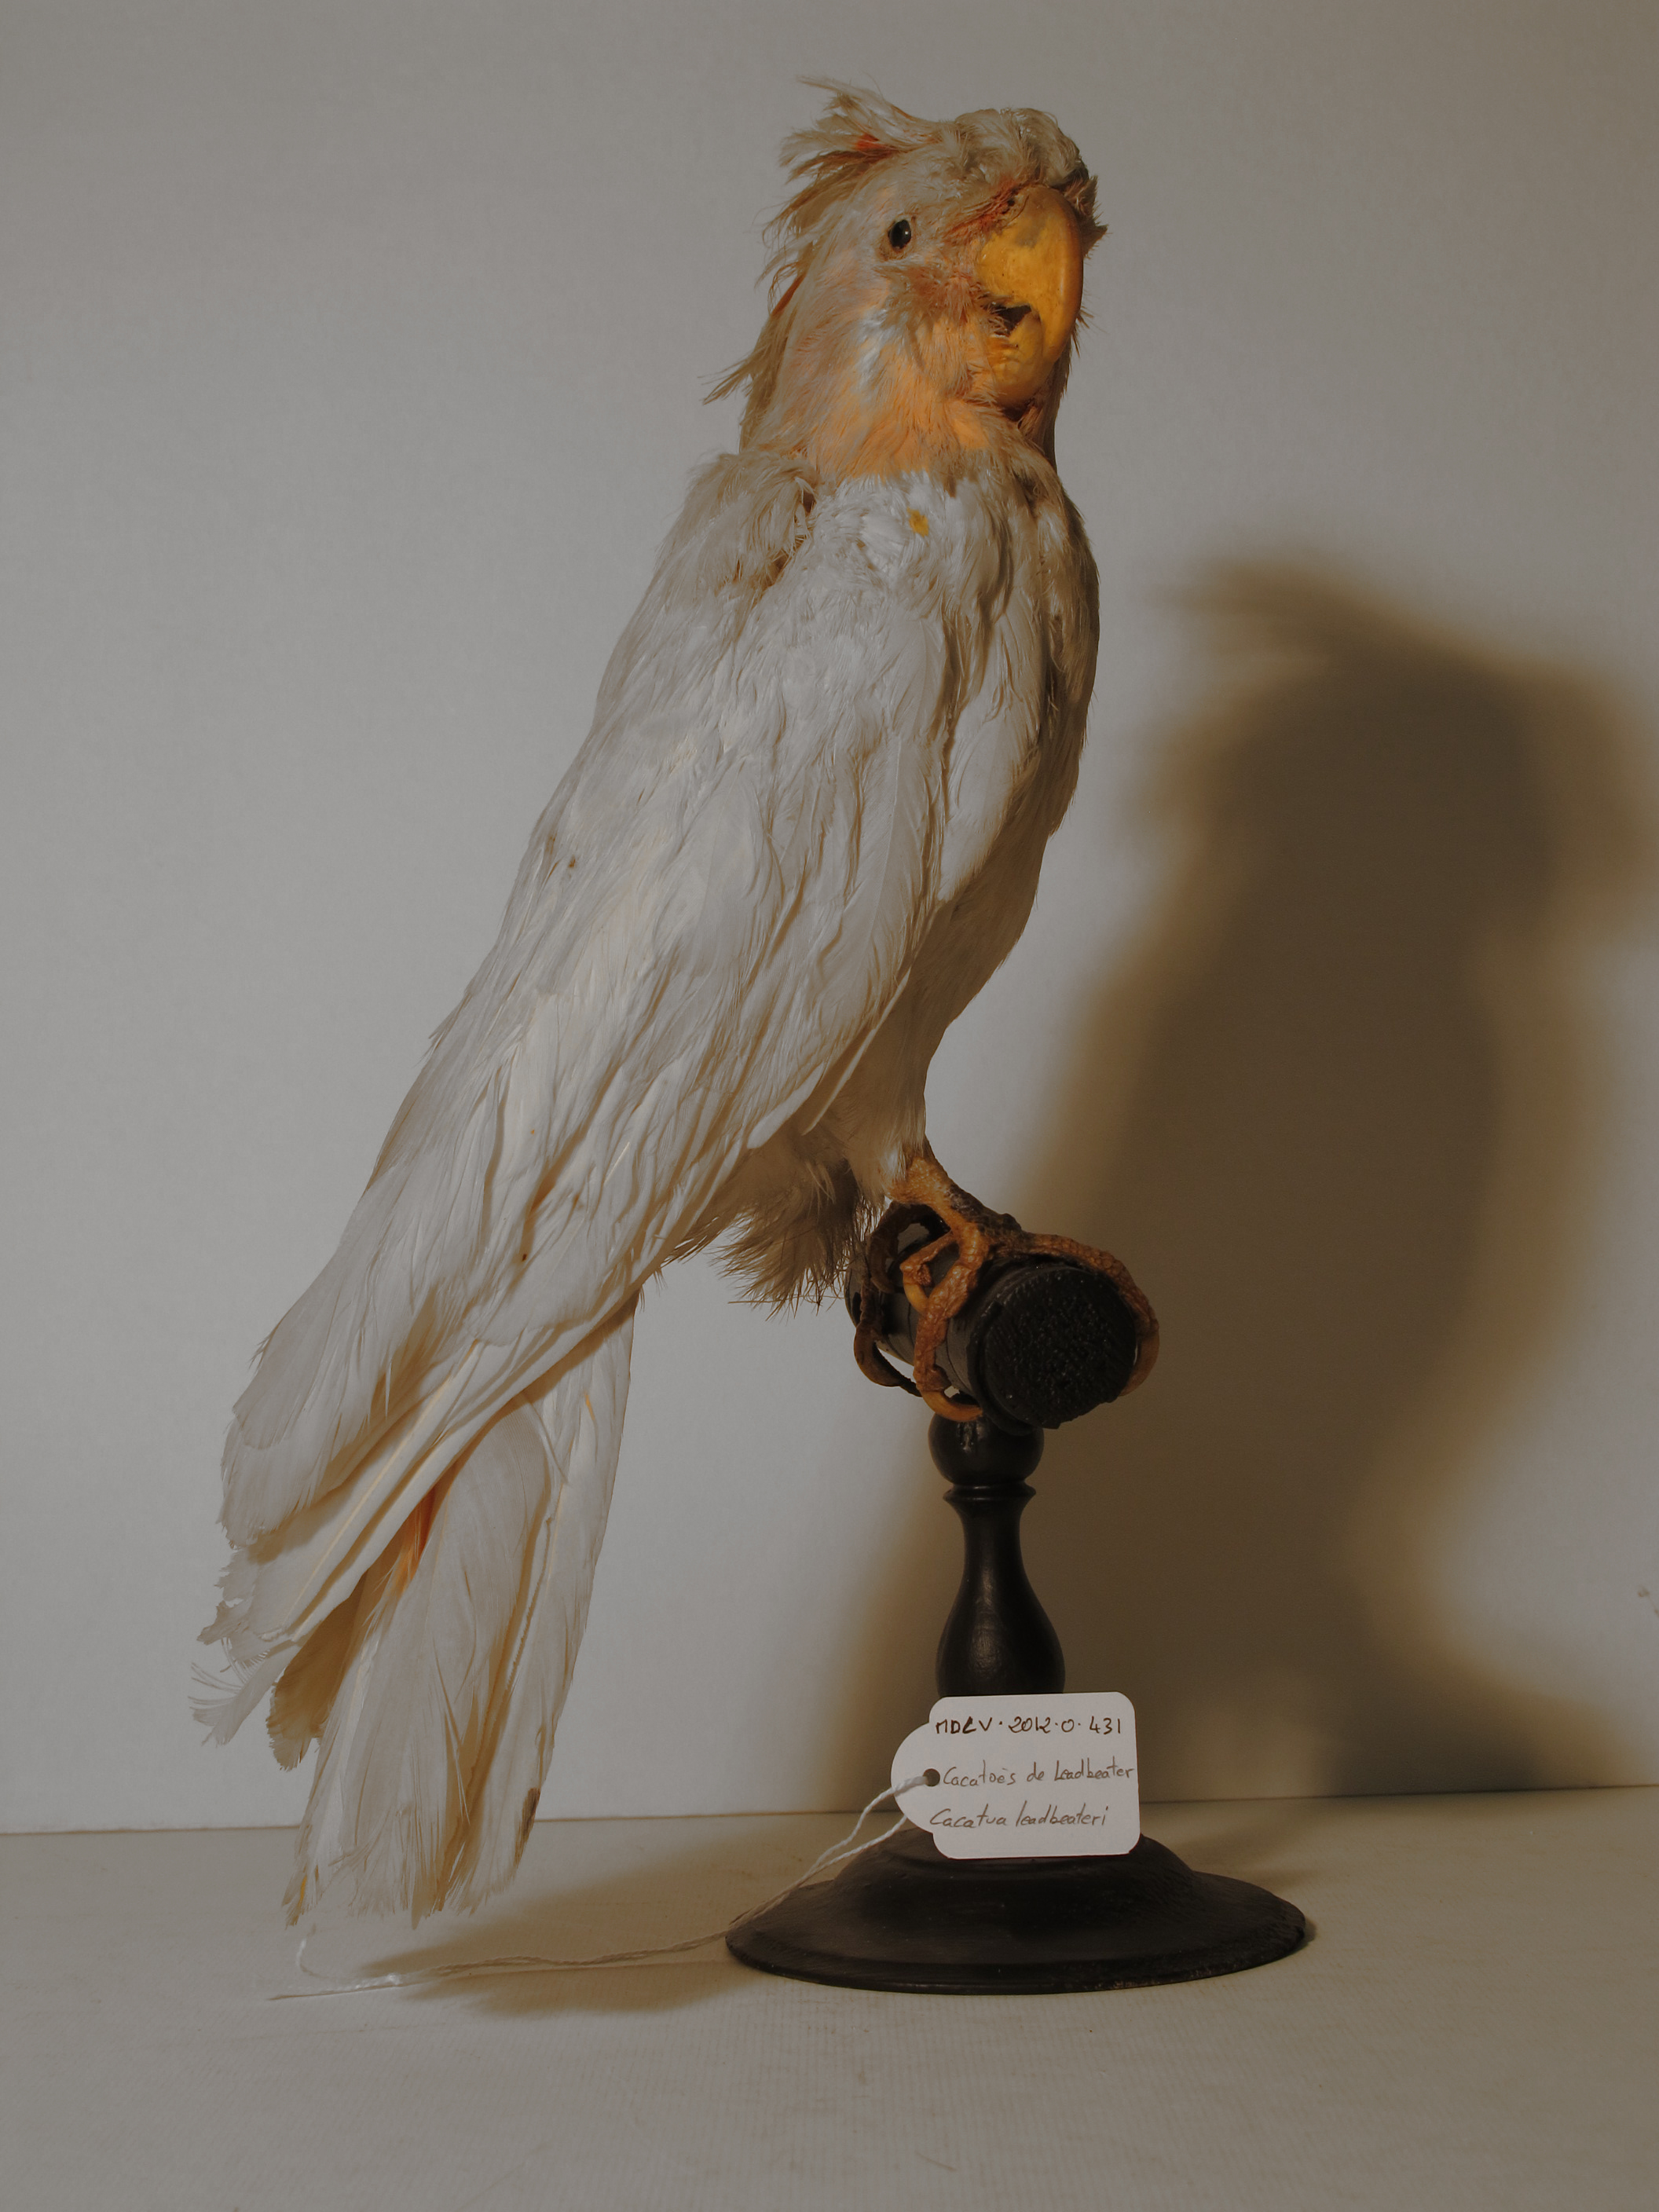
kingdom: Animalia
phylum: Chordata
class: Aves
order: Psittaciformes
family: Psittacidae
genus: Cacatua
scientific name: Cacatua leadbeateri
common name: Major Mitchell's Cockatoo
